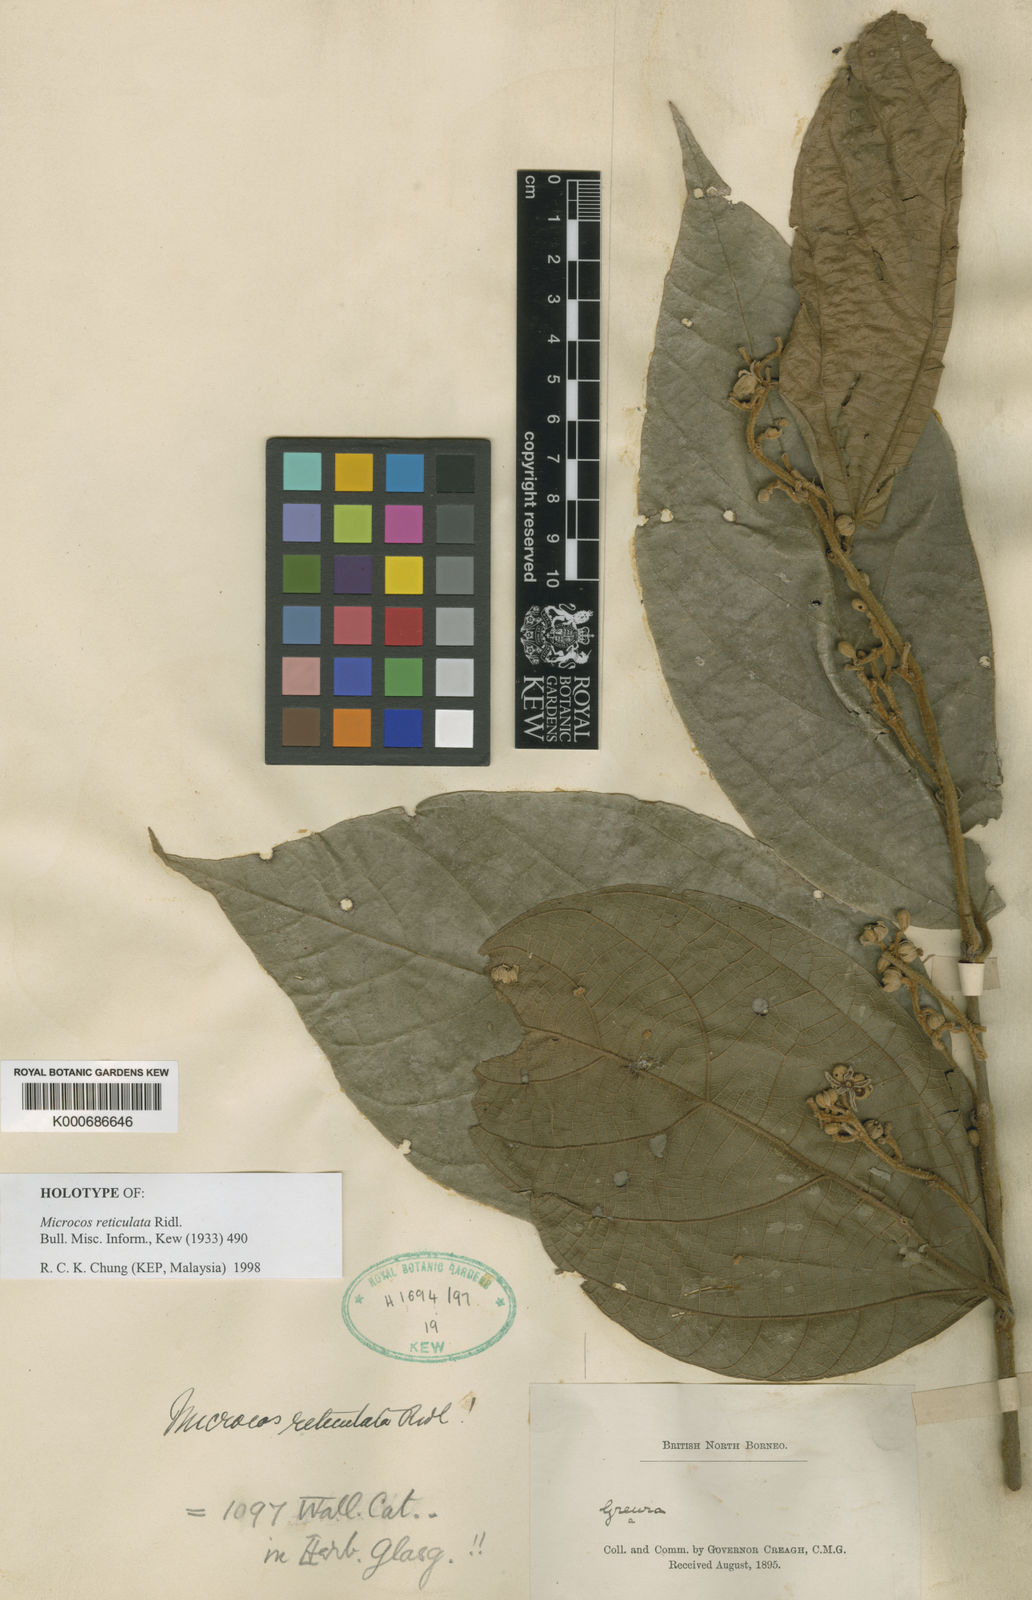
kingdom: Plantae
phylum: Tracheophyta
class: Magnoliopsida
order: Malvales
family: Malvaceae
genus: Microcos
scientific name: Microcos reticulata
